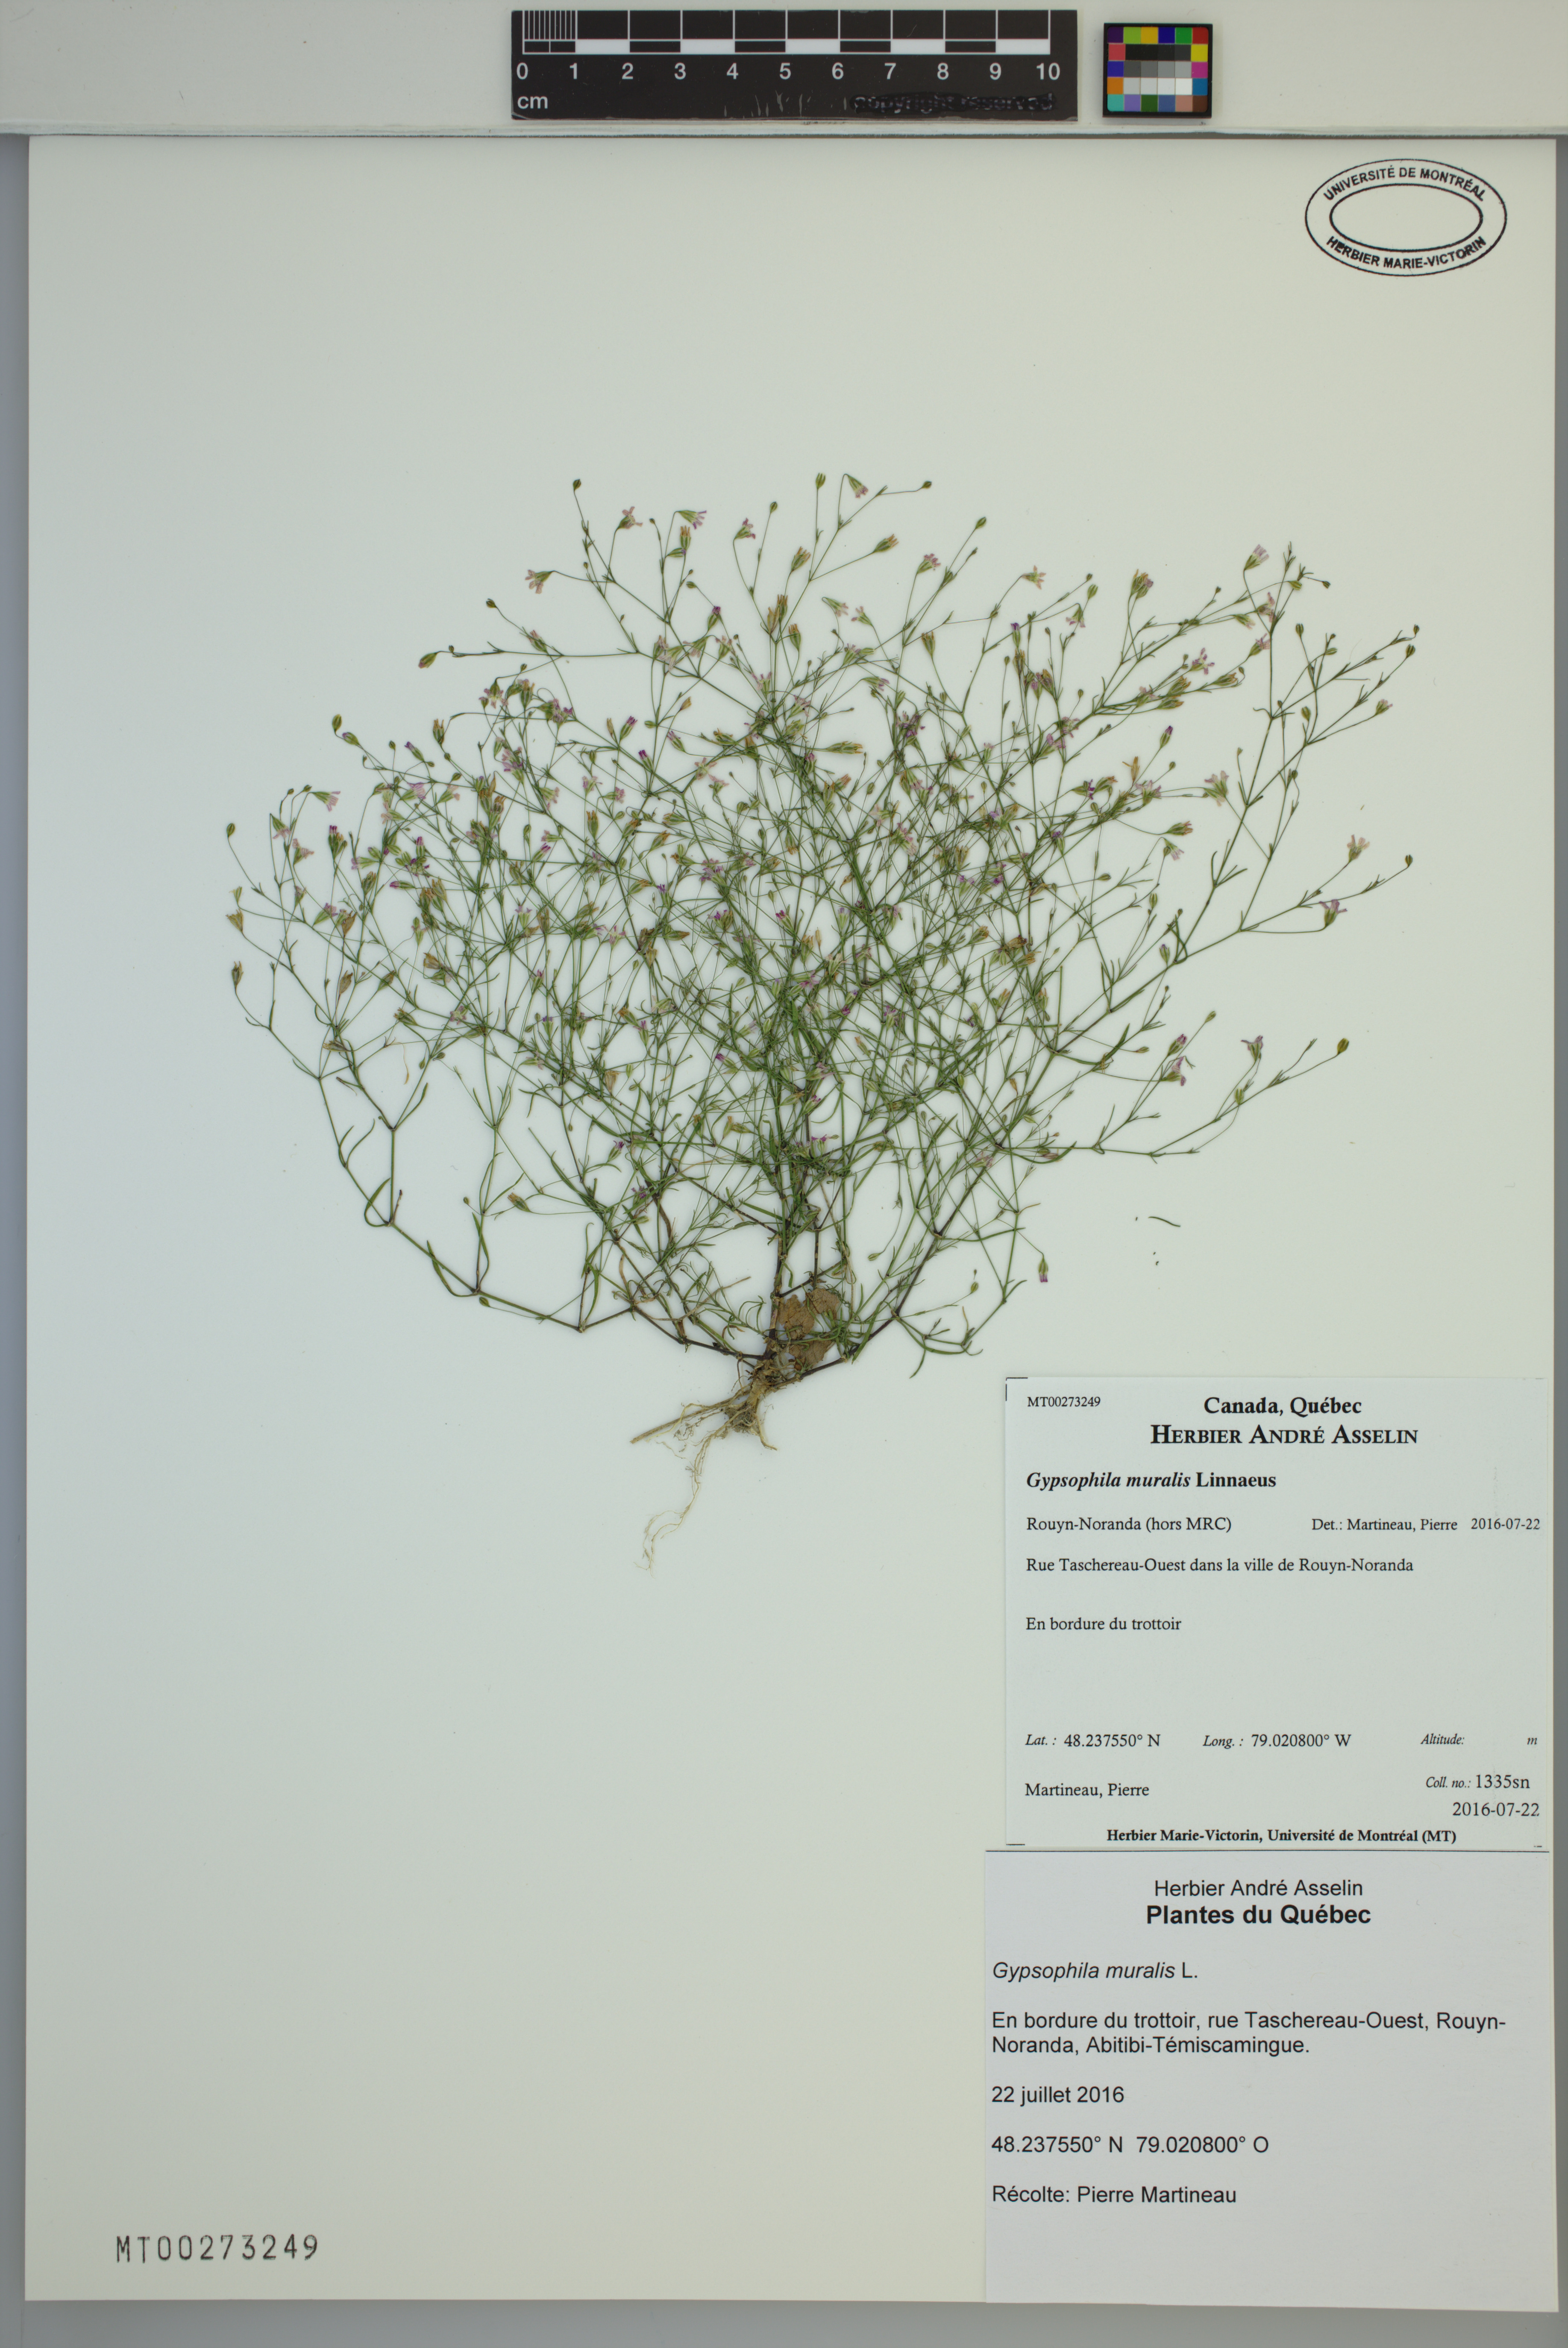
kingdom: Plantae
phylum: Tracheophyta
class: Magnoliopsida
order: Caryophyllales
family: Caryophyllaceae
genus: Psammophiliella
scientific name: Psammophiliella muralis
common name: Cushion baby's-breath
